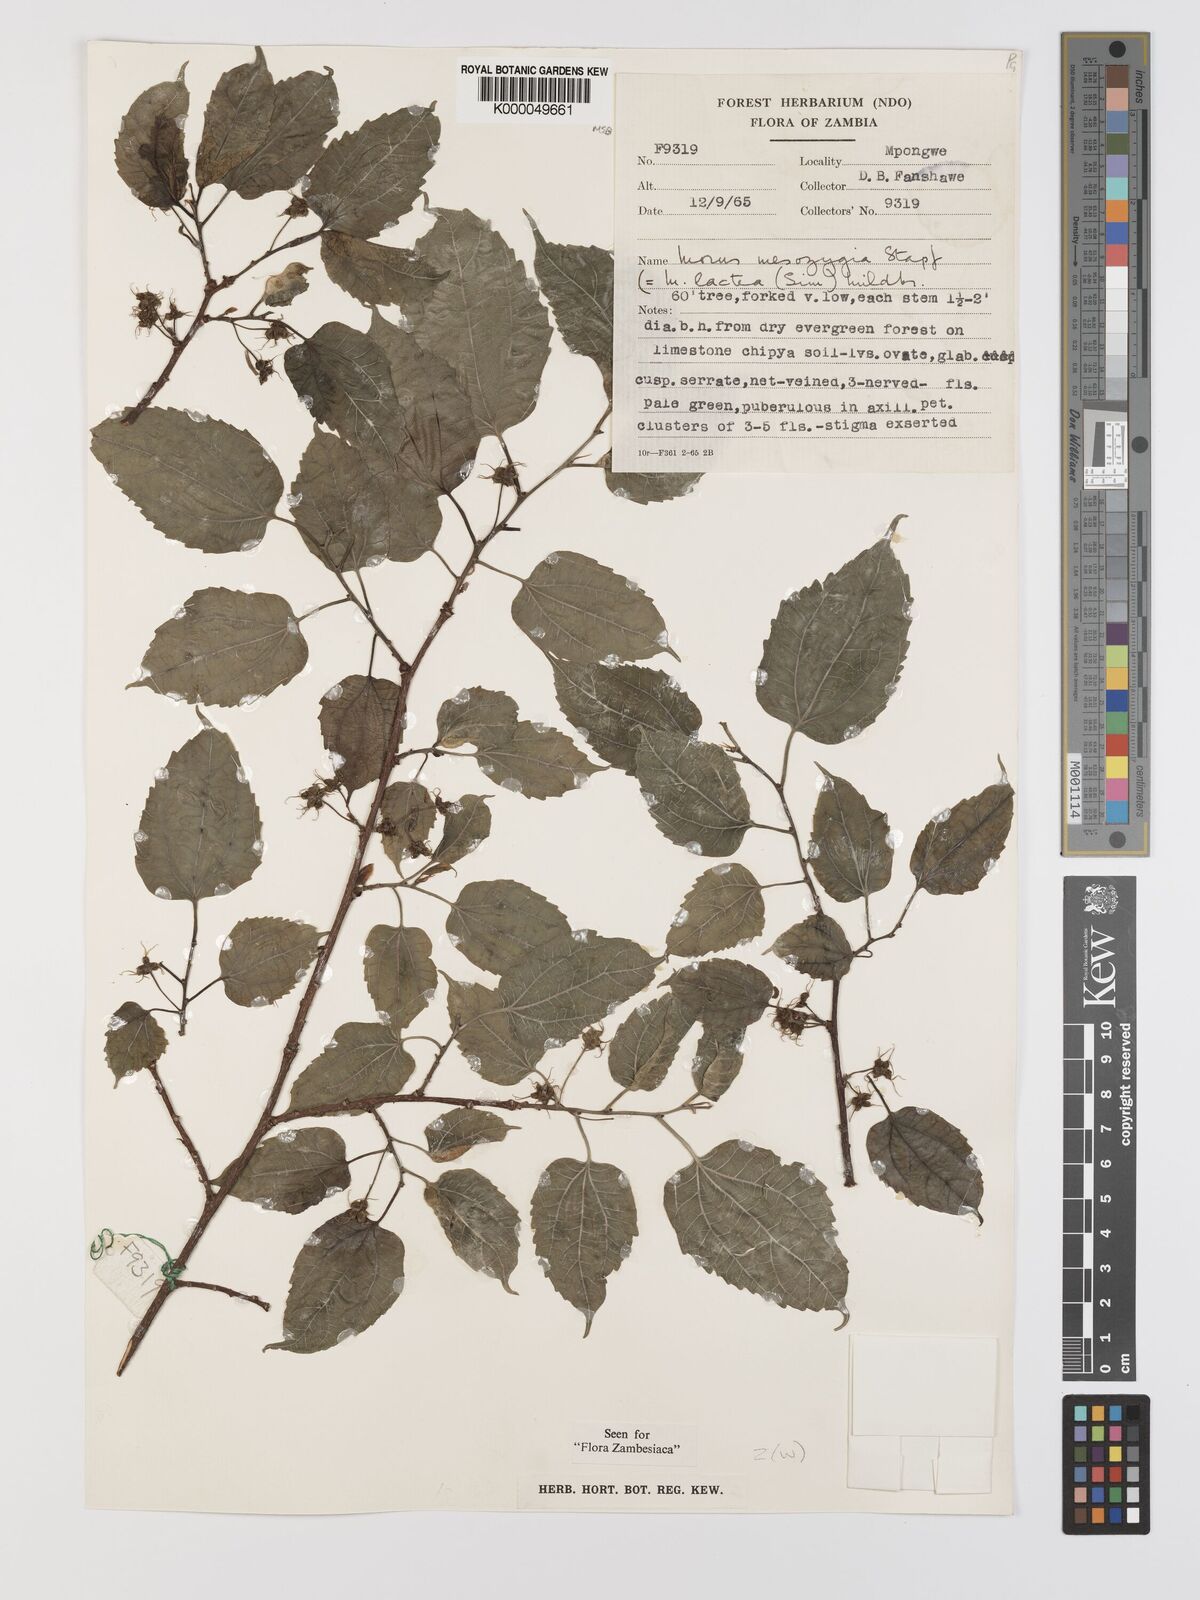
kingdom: Plantae
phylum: Tracheophyta
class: Magnoliopsida
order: Rosales
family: Moraceae
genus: Afromorus
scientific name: Afromorus mesozygia
